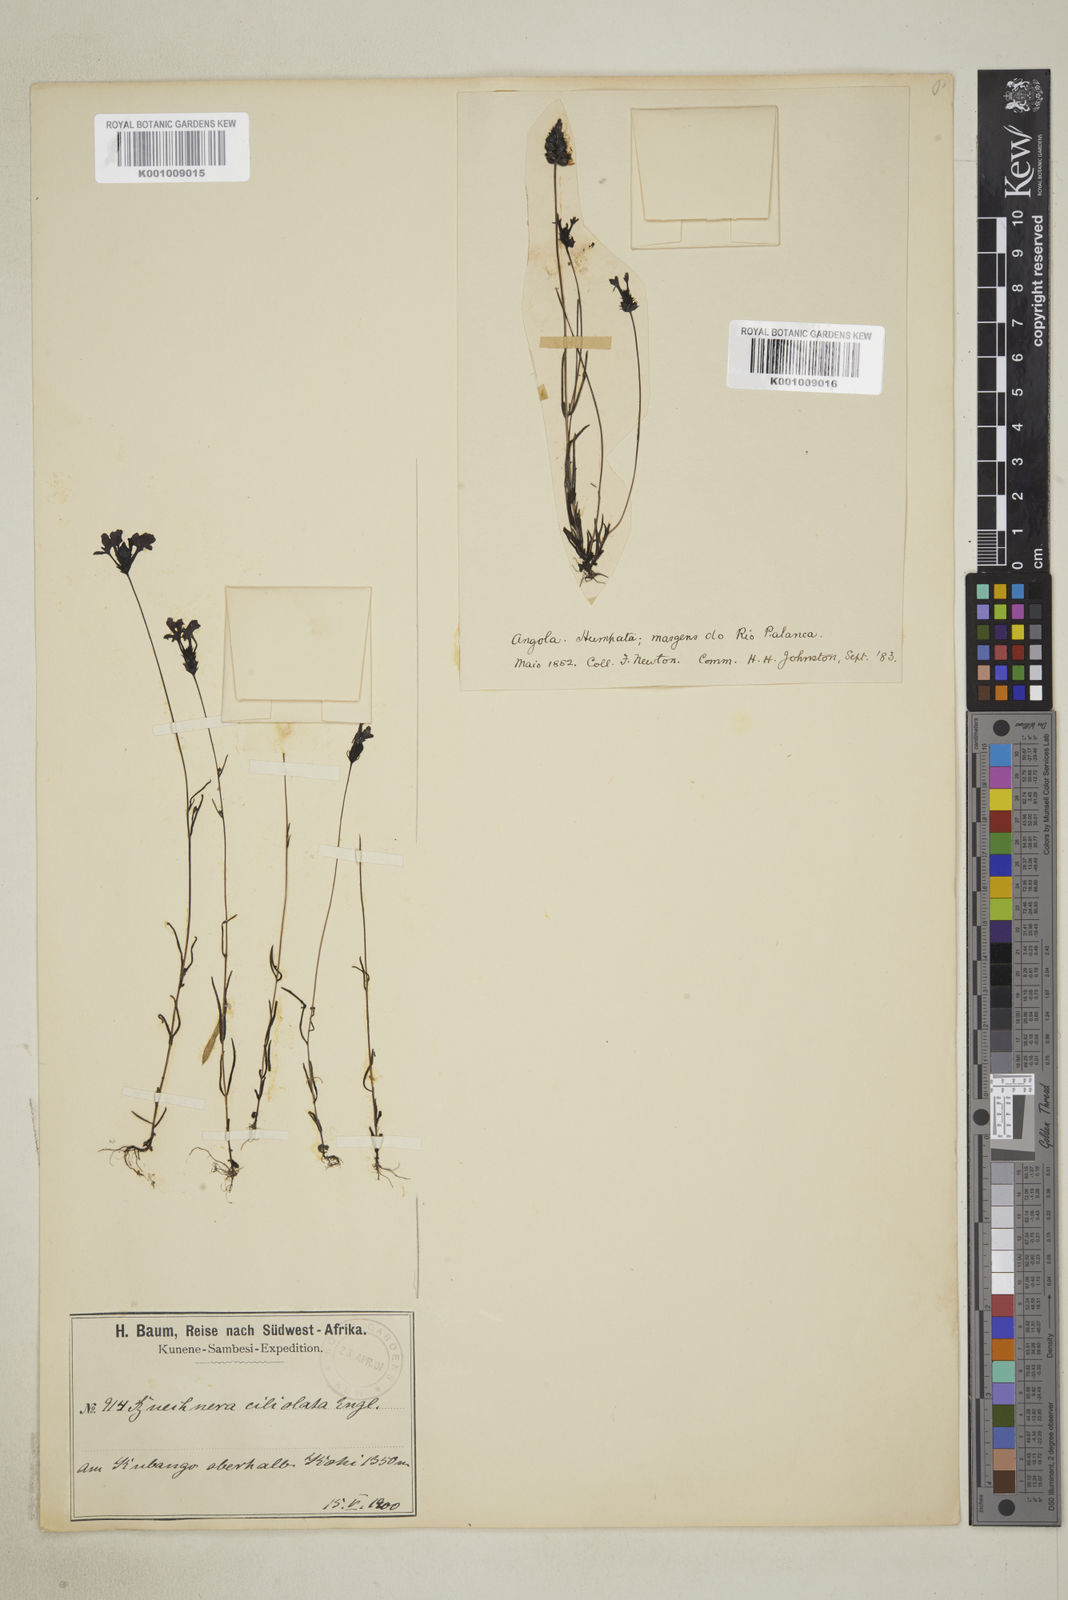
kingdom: Plantae
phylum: Tracheophyta
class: Magnoliopsida
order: Lamiales
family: Orobanchaceae
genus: Buchnera
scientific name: Buchnera ciliolata
